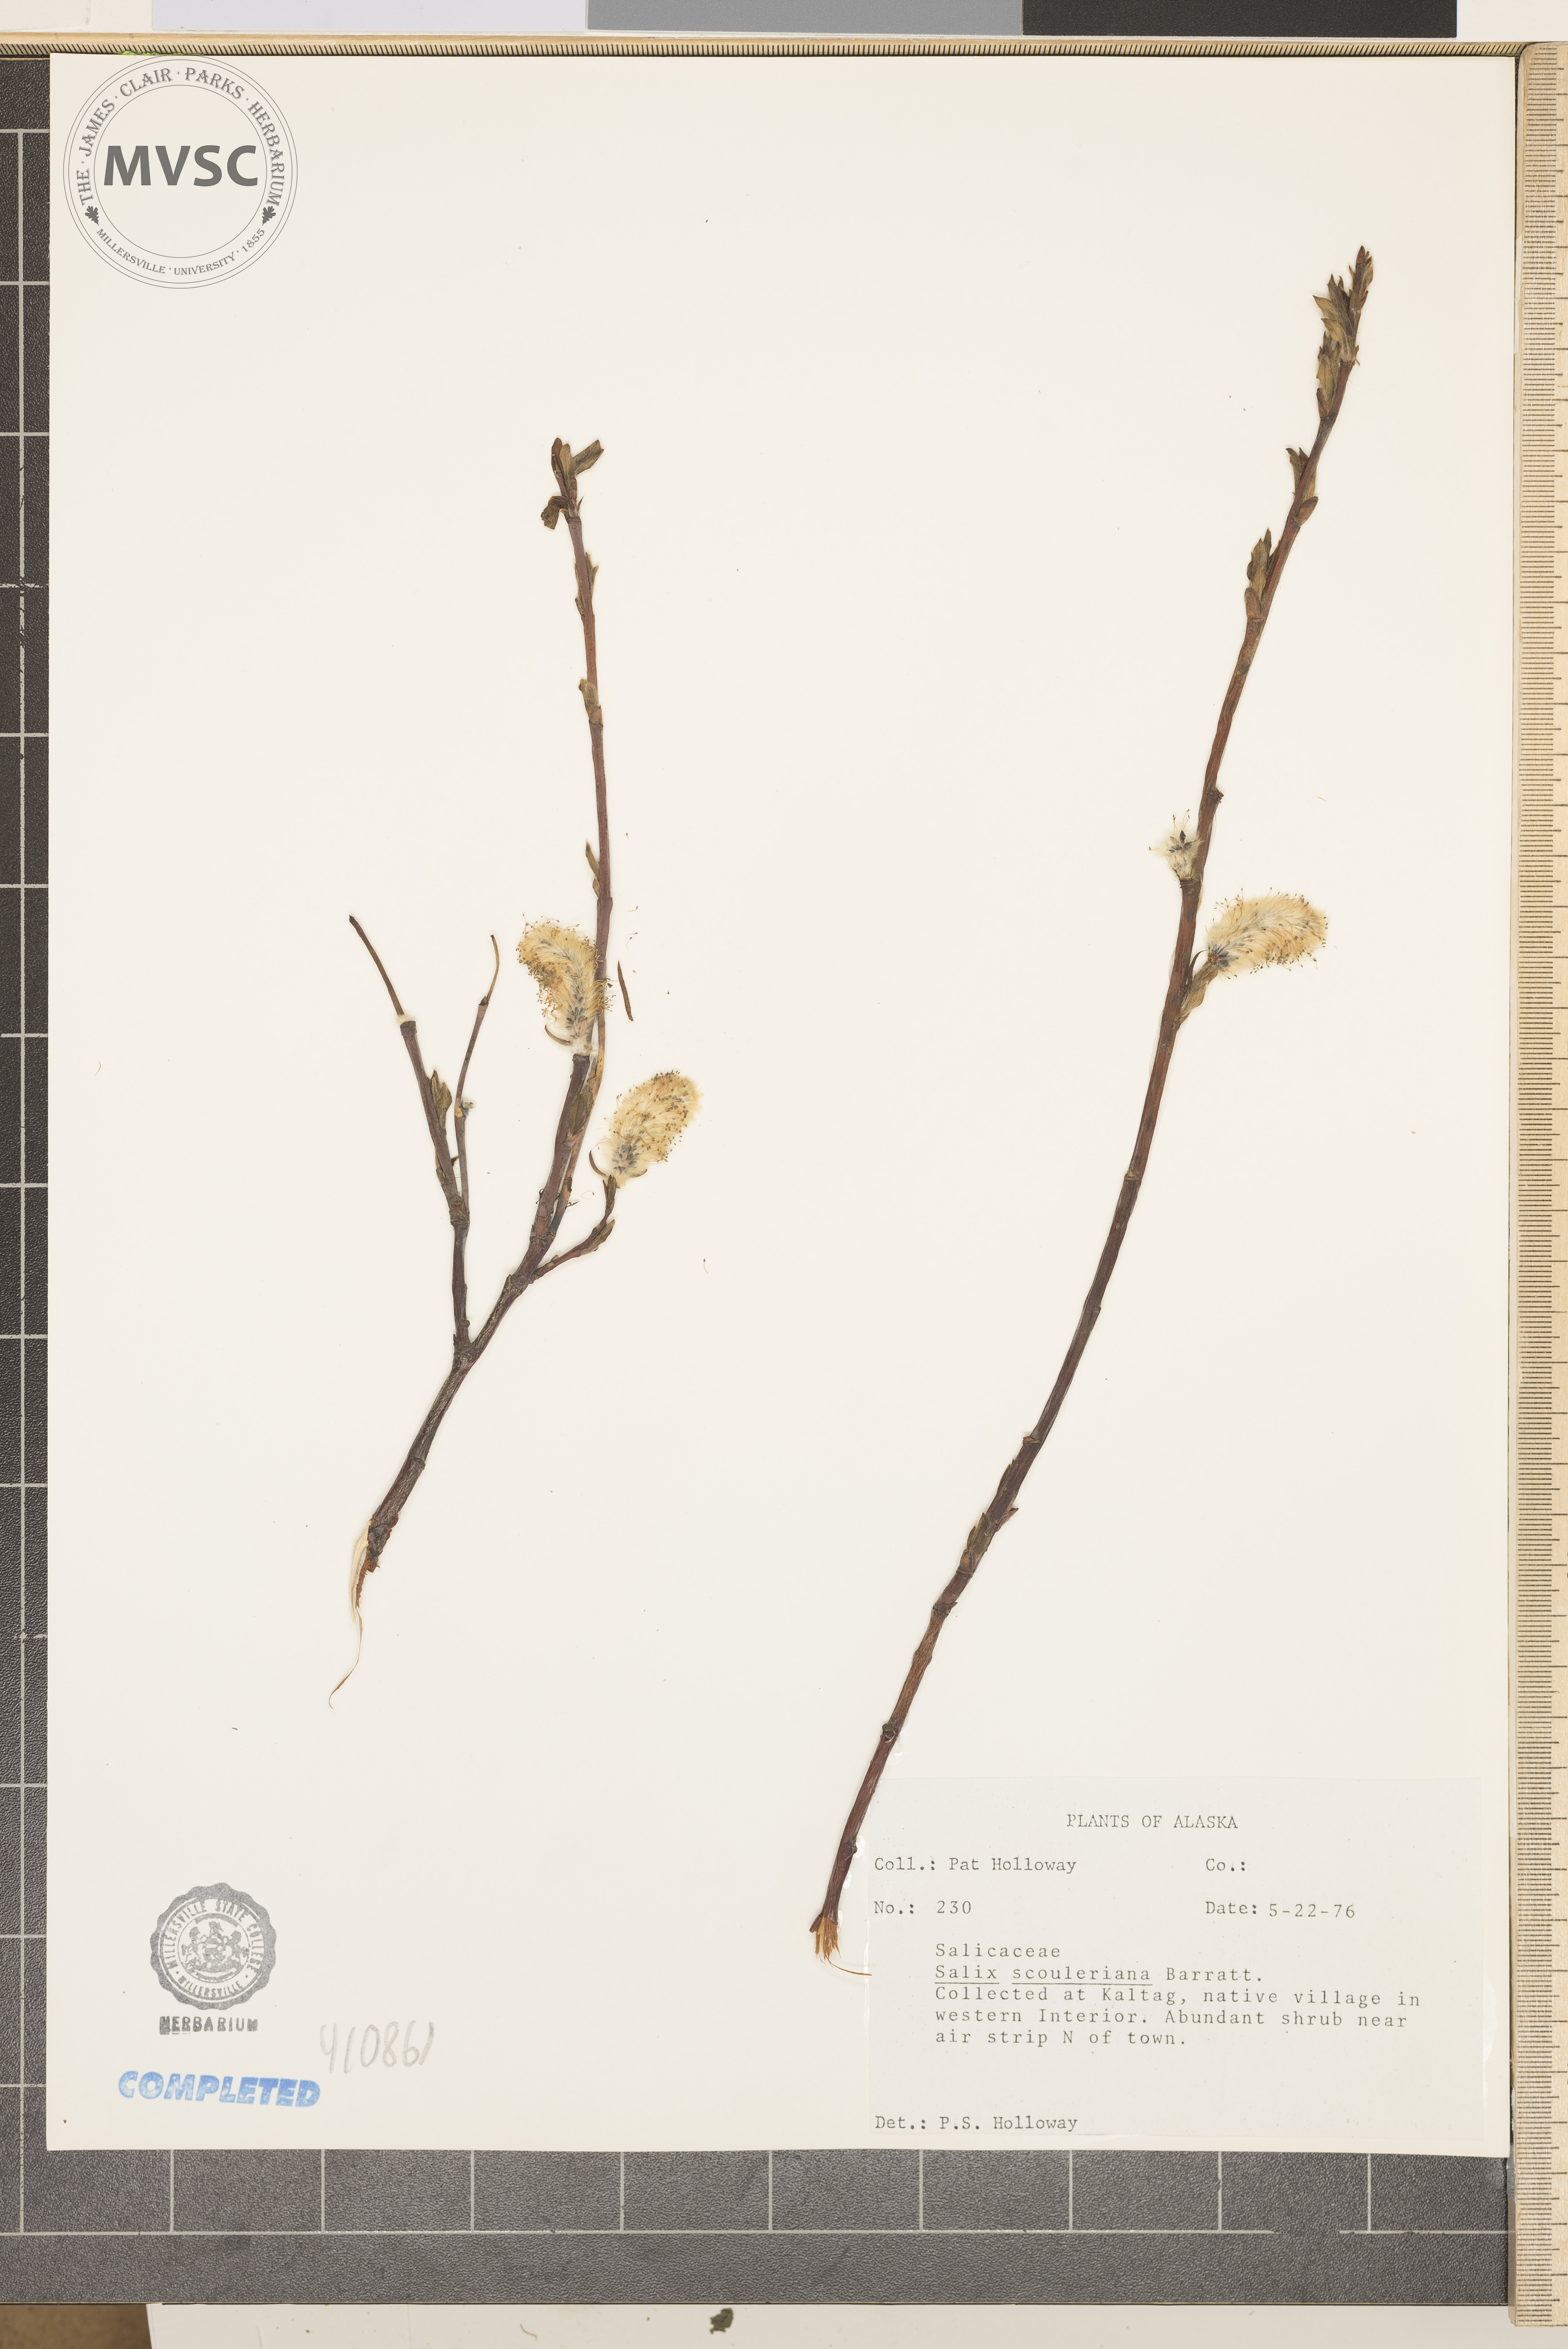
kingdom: Plantae
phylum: Tracheophyta
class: Magnoliopsida
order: Malpighiales
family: Salicaceae
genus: Salix
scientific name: Salix scouleriana
